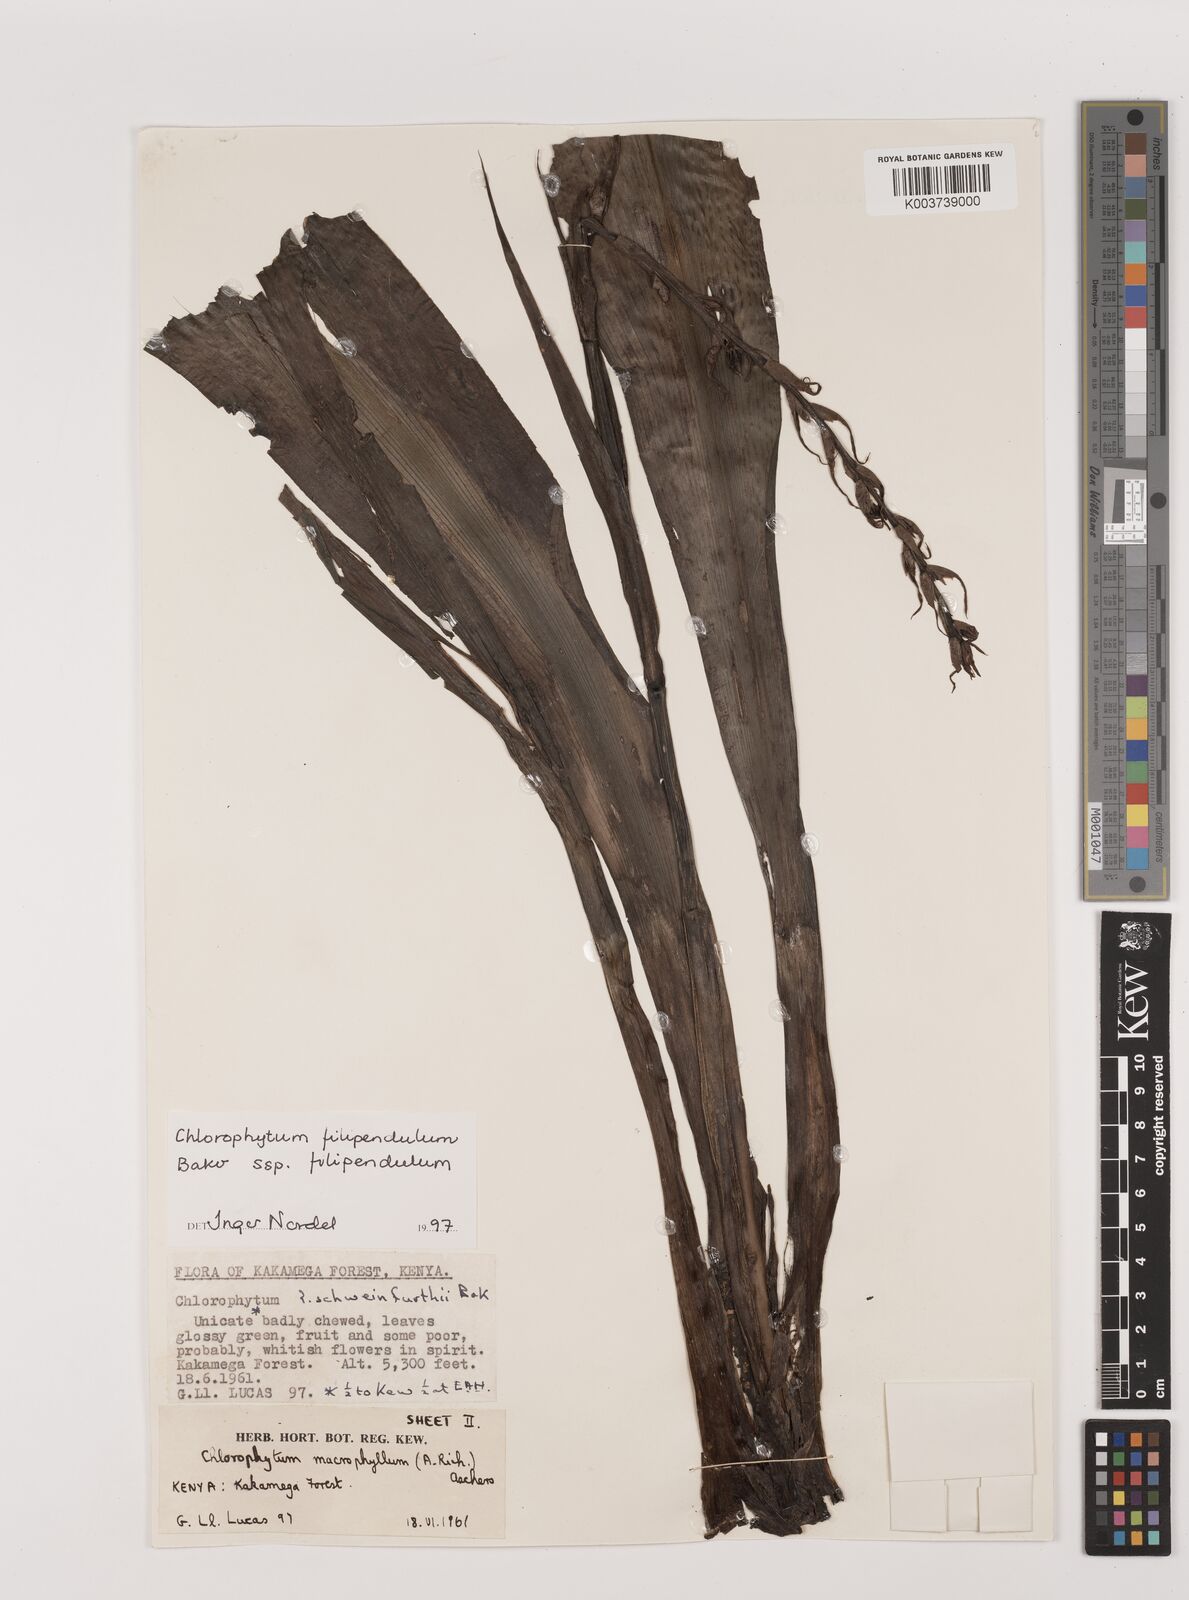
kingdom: Plantae
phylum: Tracheophyta
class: Liliopsida
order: Asparagales
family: Asparagaceae
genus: Chlorophytum
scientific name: Chlorophytum filipendulum
